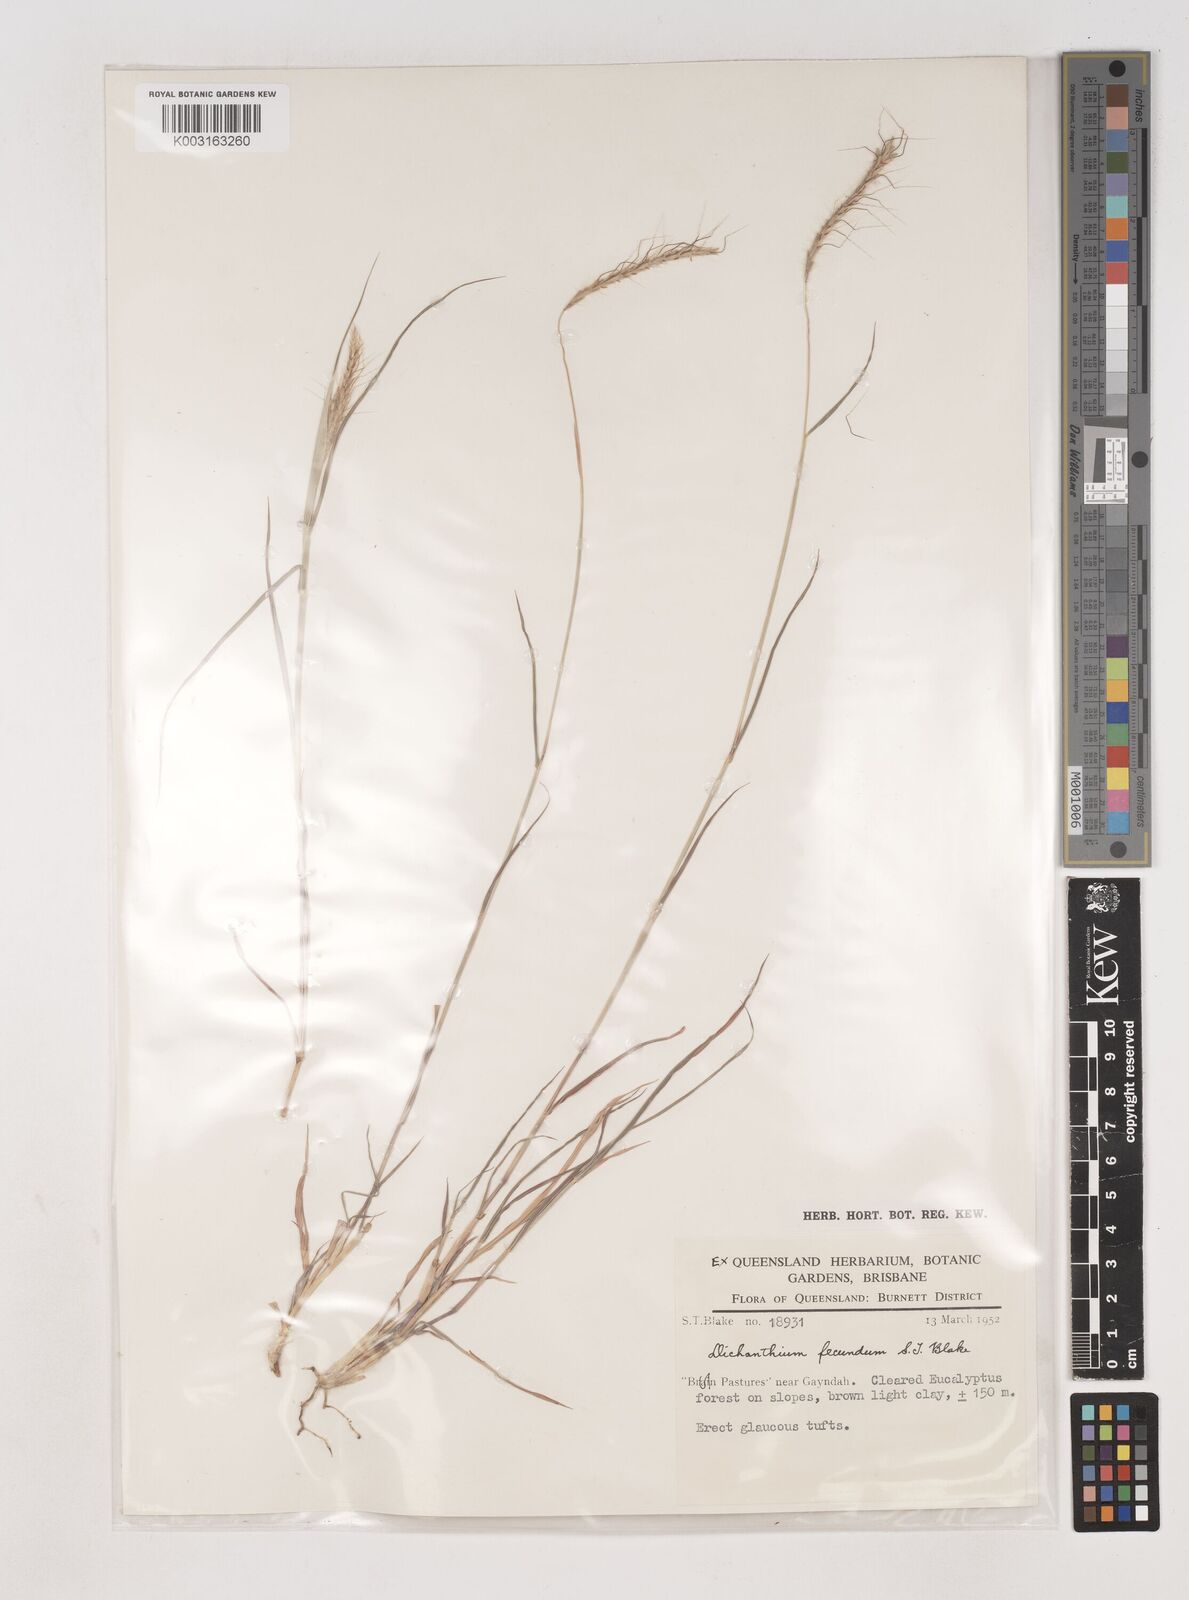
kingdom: Plantae
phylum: Tracheophyta
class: Liliopsida
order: Poales
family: Poaceae
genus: Dichanthium
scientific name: Dichanthium fecundum
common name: Bundle-bundle
